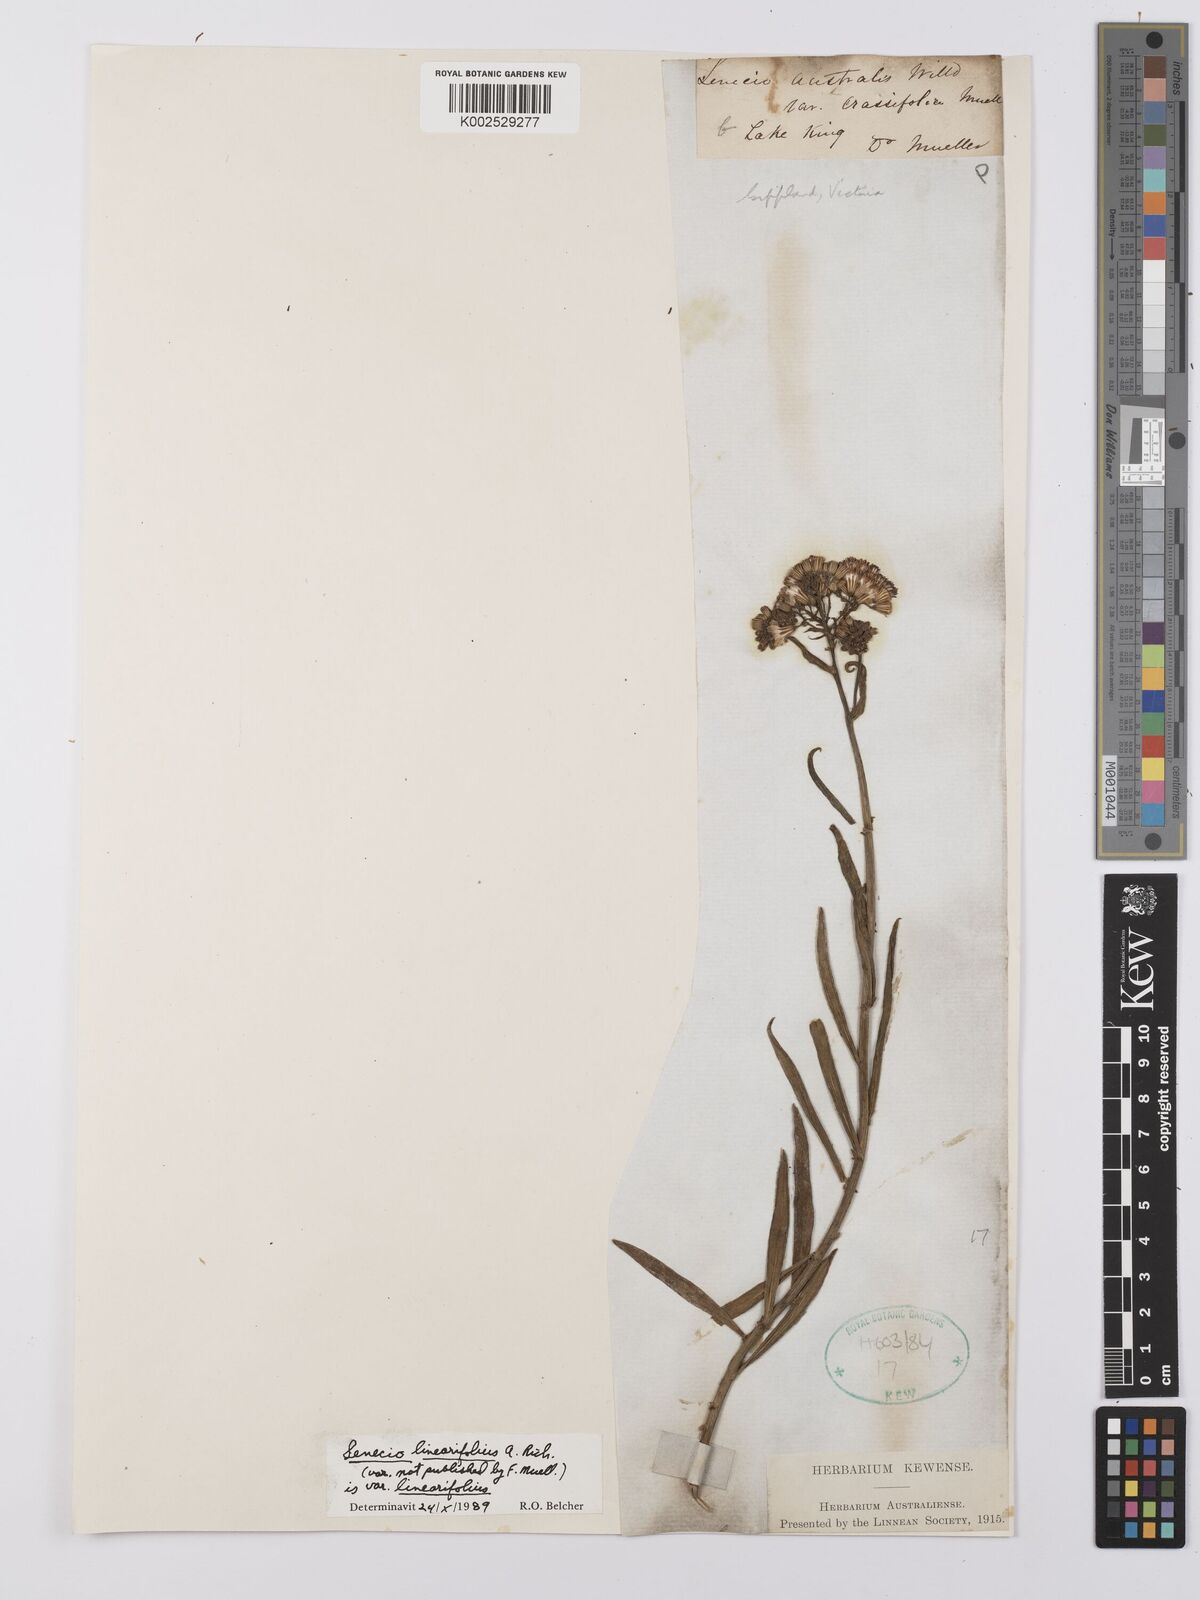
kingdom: Plantae
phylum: Tracheophyta
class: Magnoliopsida
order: Asterales
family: Asteraceae
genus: Senecio
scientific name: Senecio linearifolius
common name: Fireweed groundsel
